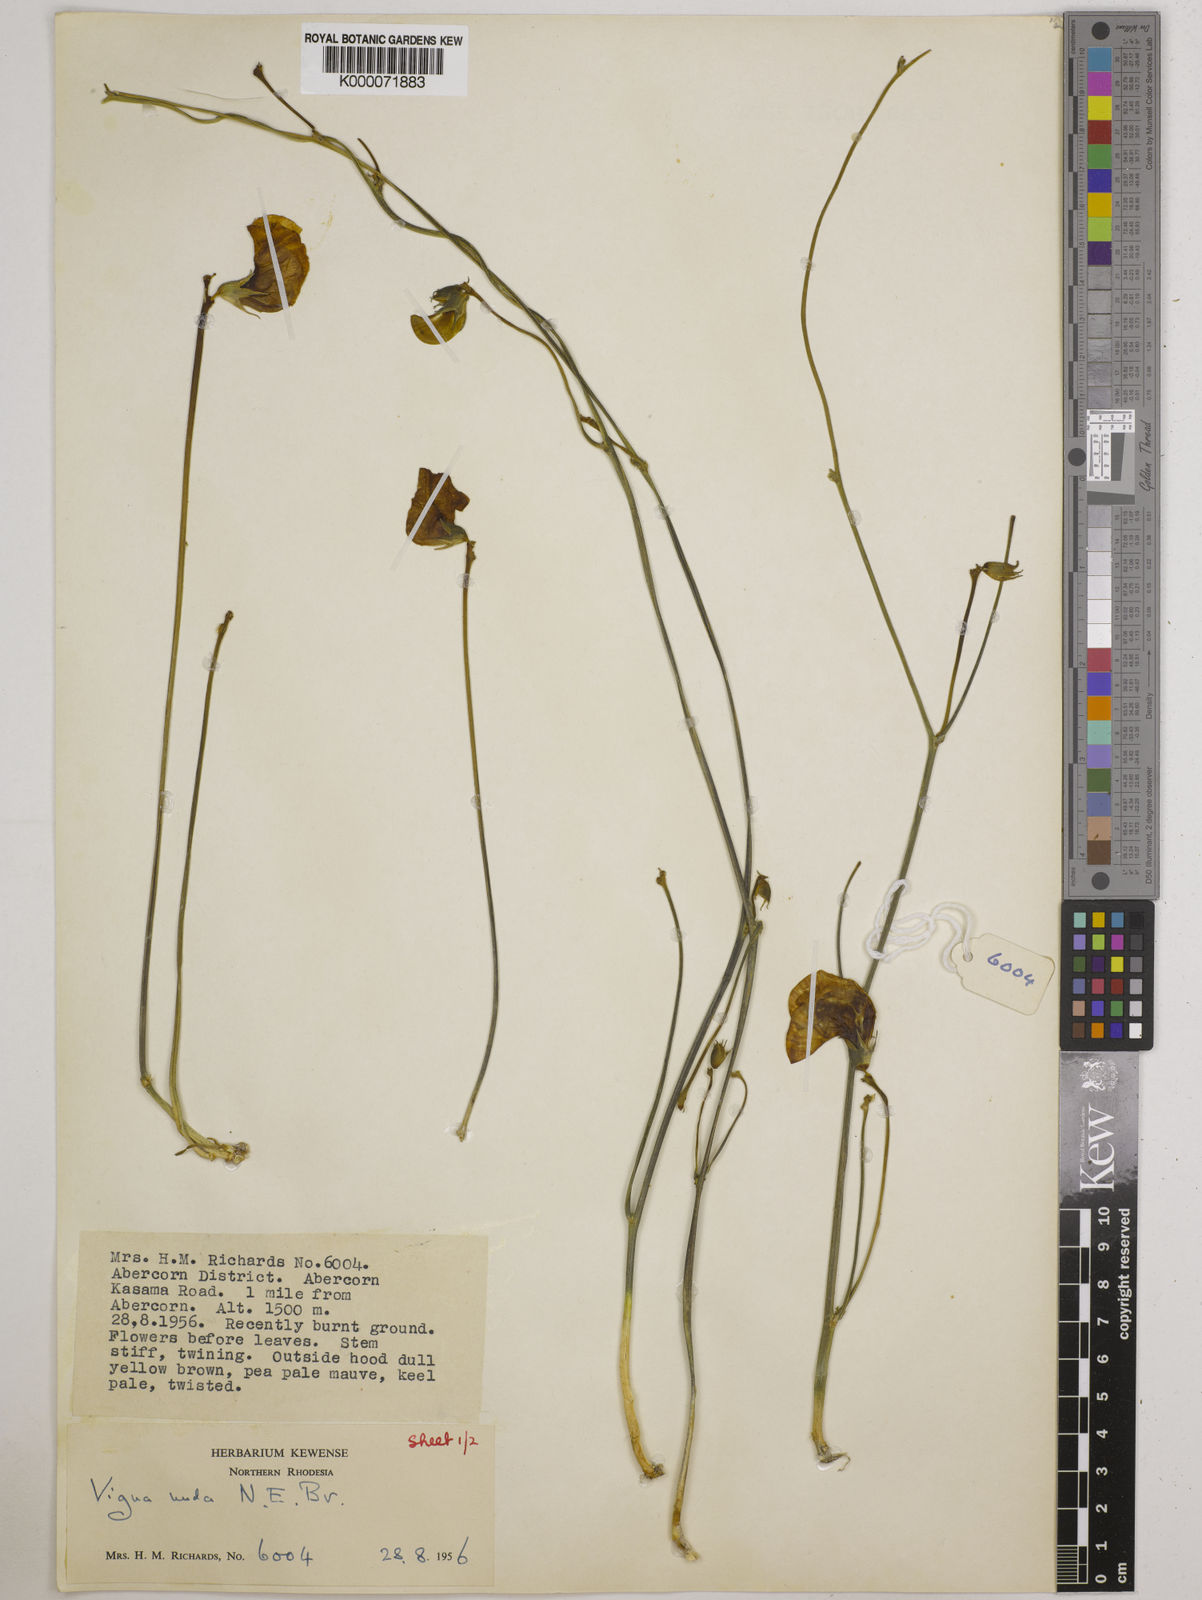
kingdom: Plantae
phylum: Tracheophyta
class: Magnoliopsida
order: Fabales
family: Fabaceae
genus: Vigna
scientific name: Vigna antunesii
